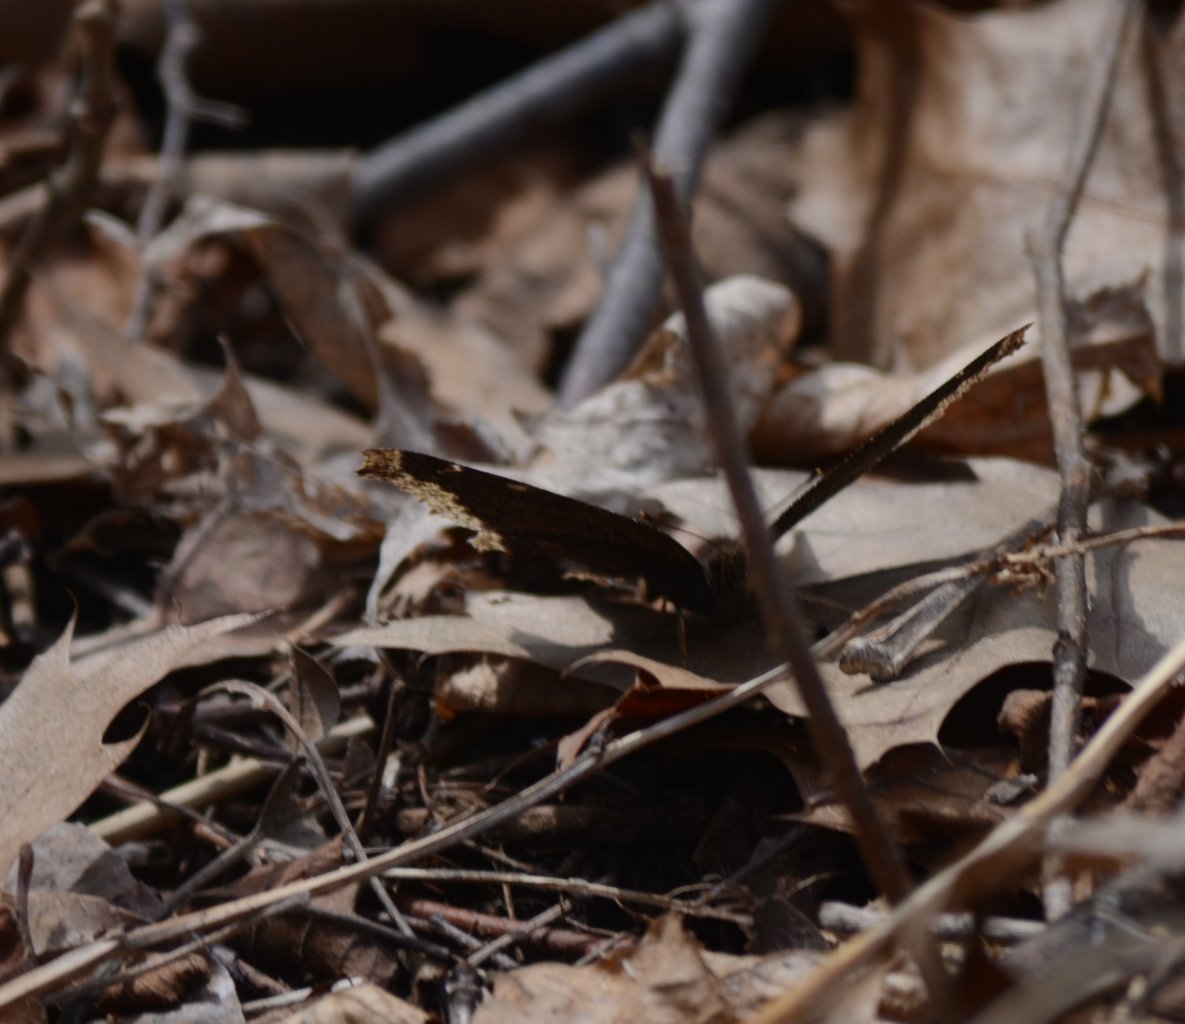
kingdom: Animalia
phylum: Arthropoda
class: Insecta
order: Lepidoptera
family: Nymphalidae
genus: Nymphalis
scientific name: Nymphalis antiopa
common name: Mourning Cloak
